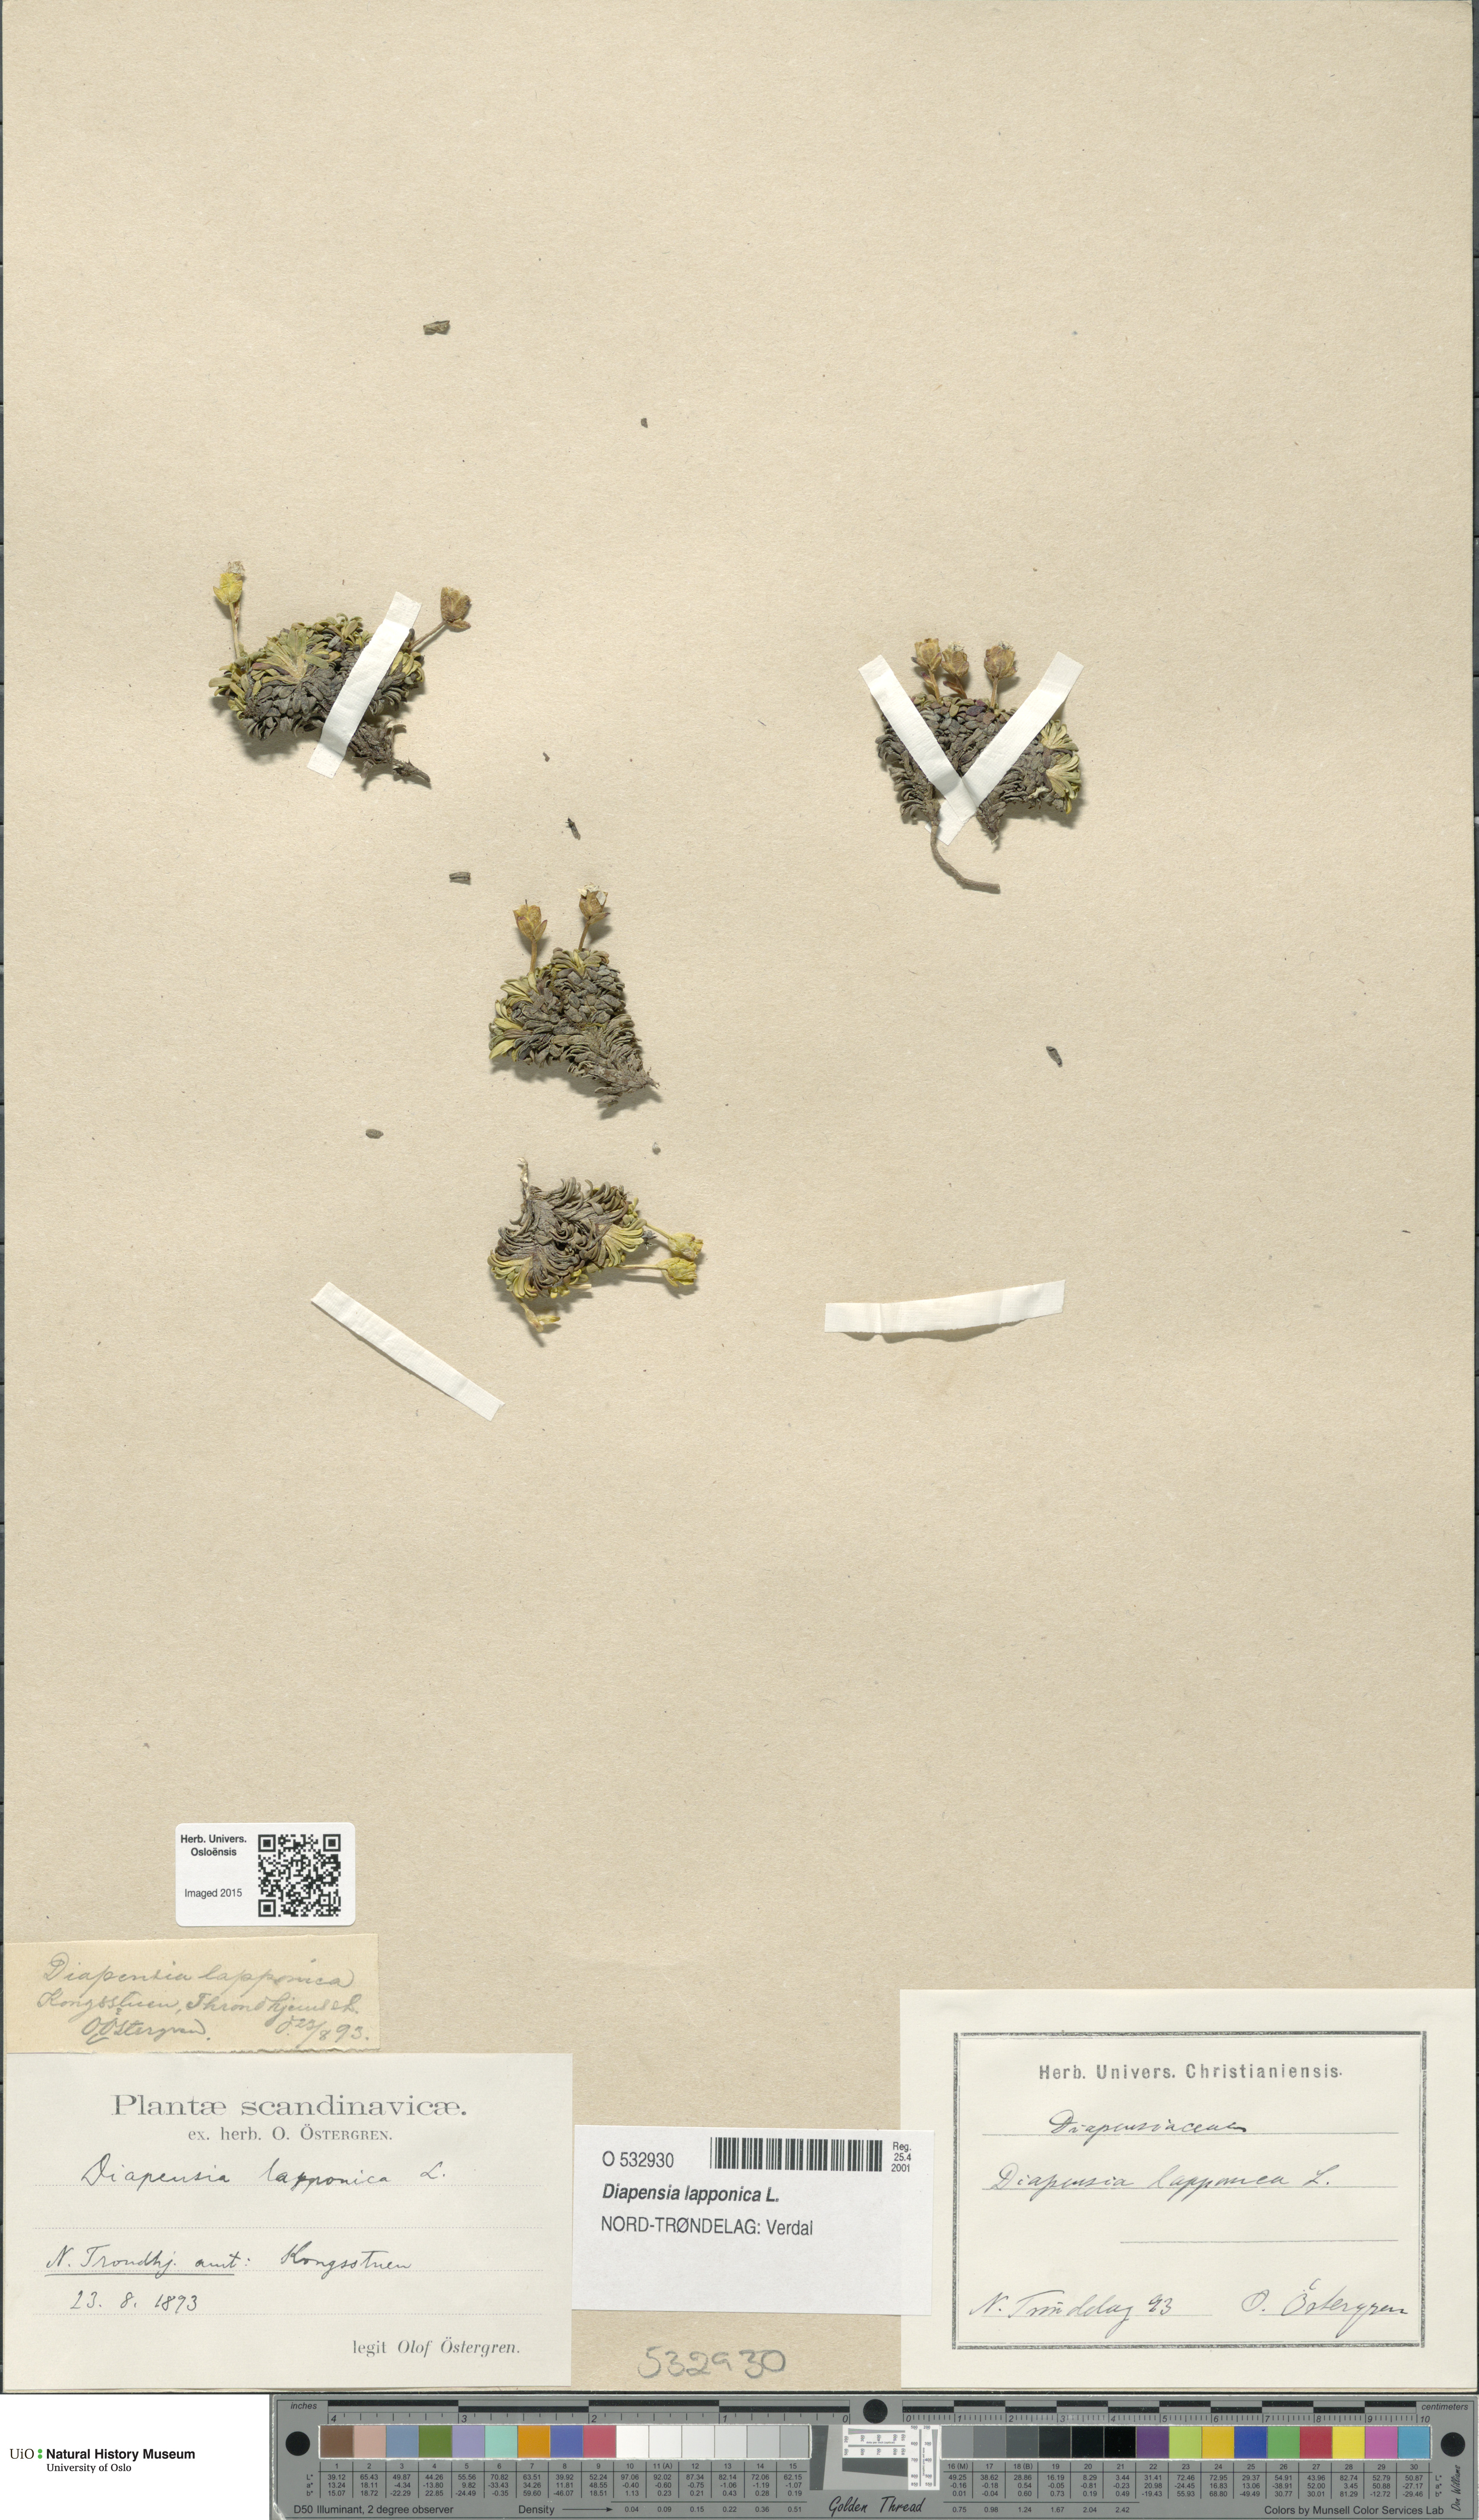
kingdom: Plantae
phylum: Tracheophyta
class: Magnoliopsida
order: Ericales
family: Diapensiaceae
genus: Diapensia
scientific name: Diapensia lapponica
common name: Diapensia
